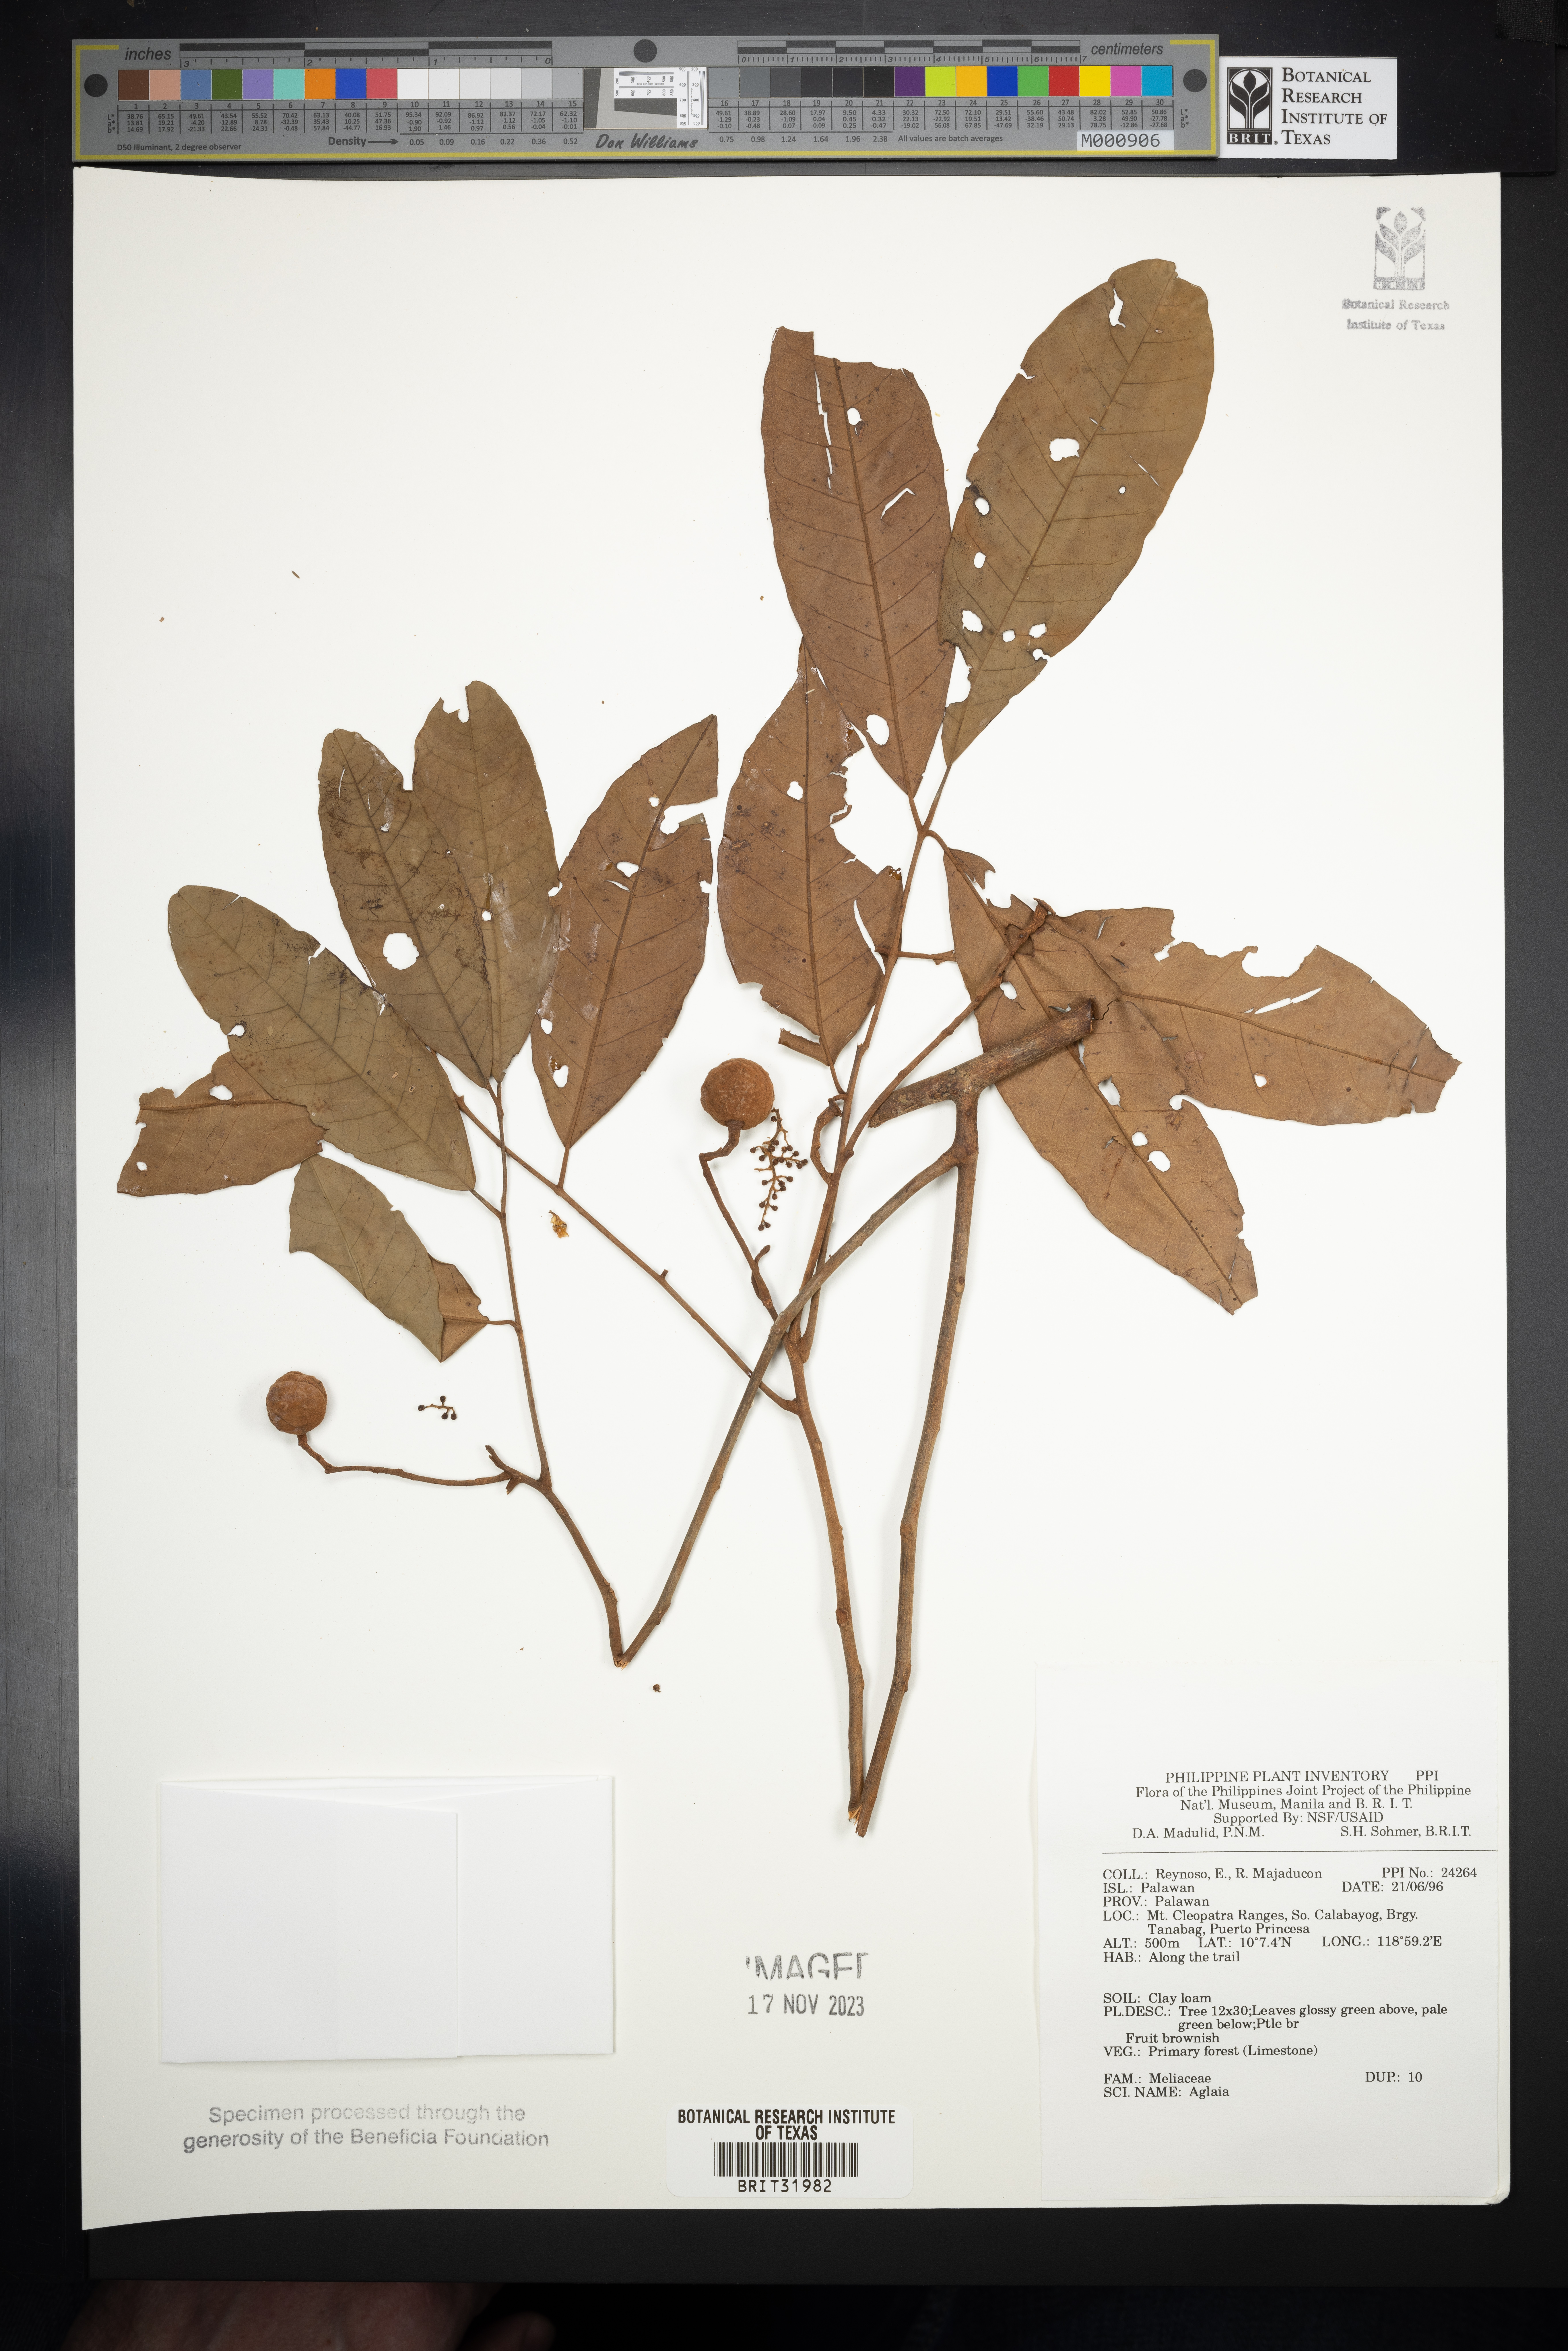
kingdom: Plantae
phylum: Tracheophyta
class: Magnoliopsida
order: Sapindales
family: Meliaceae
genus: Aglaia
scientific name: Aglaia
